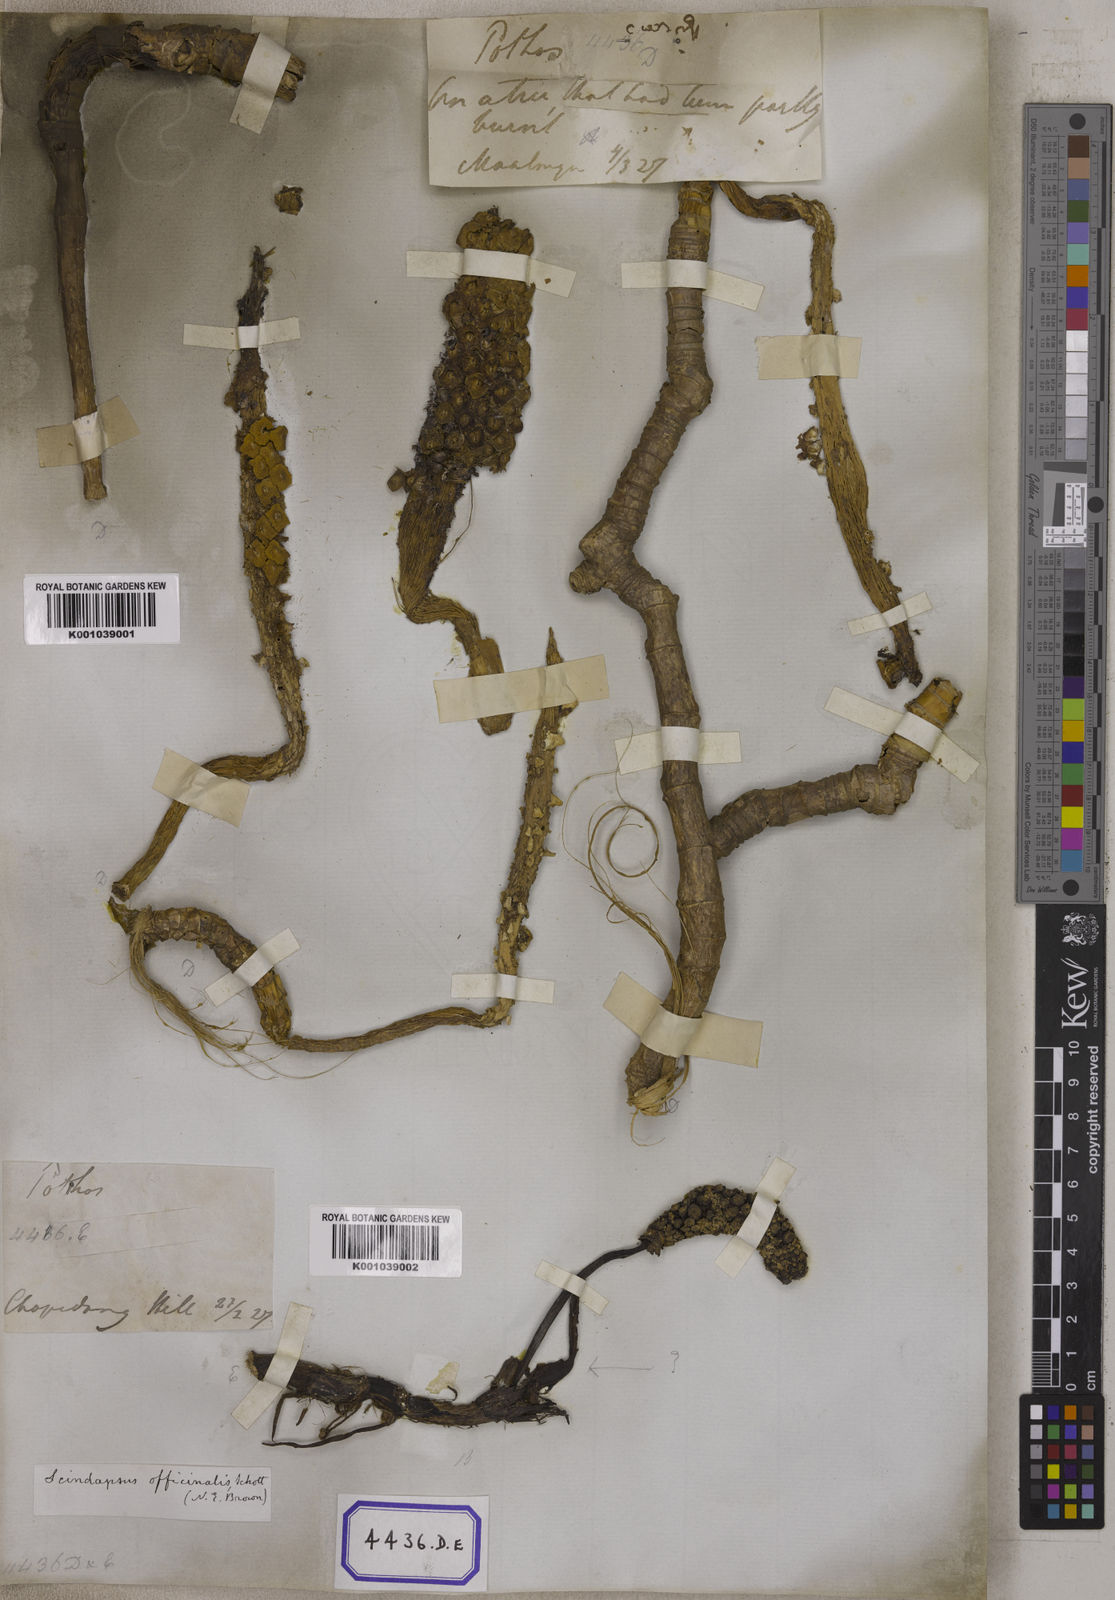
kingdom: Plantae
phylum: Tracheophyta
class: Liliopsida
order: Alismatales
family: Araceae
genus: Scindapsus
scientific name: Scindapsus officinalis
